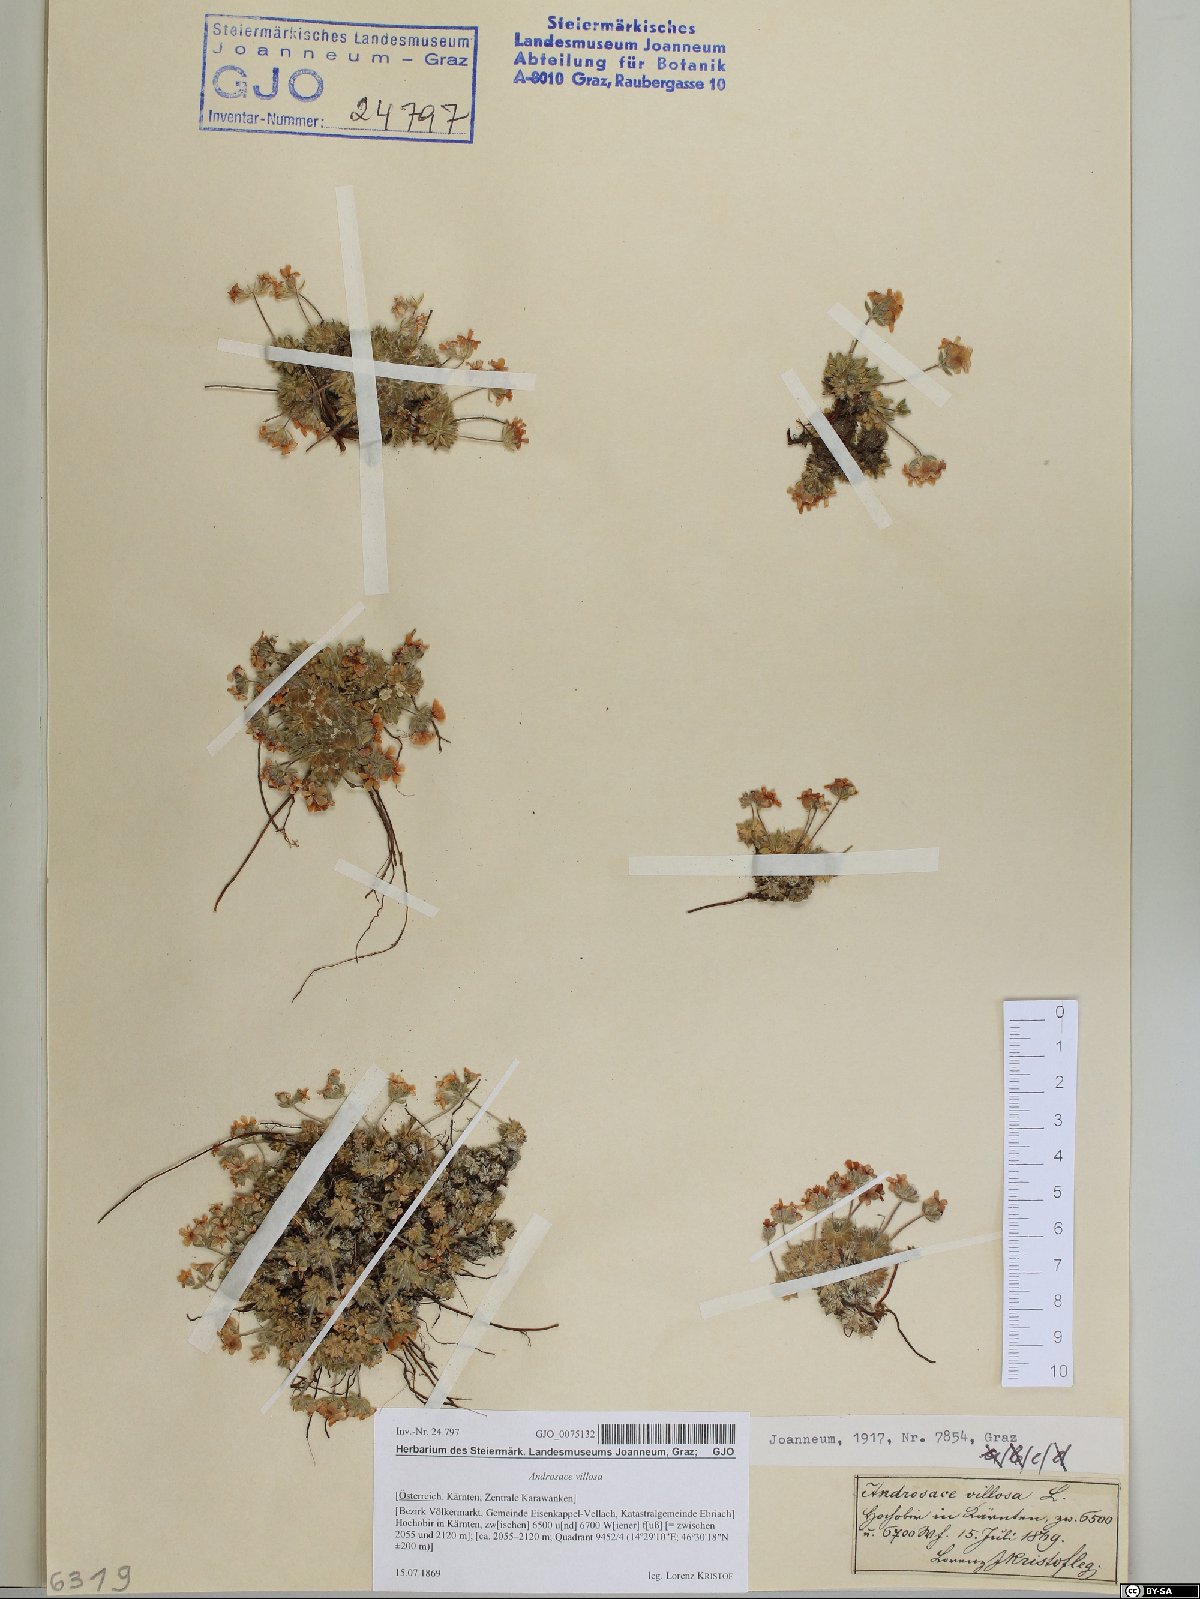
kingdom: Plantae
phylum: Tracheophyta
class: Magnoliopsida
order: Ericales
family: Primulaceae
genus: Androsace
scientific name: Androsace villosa
